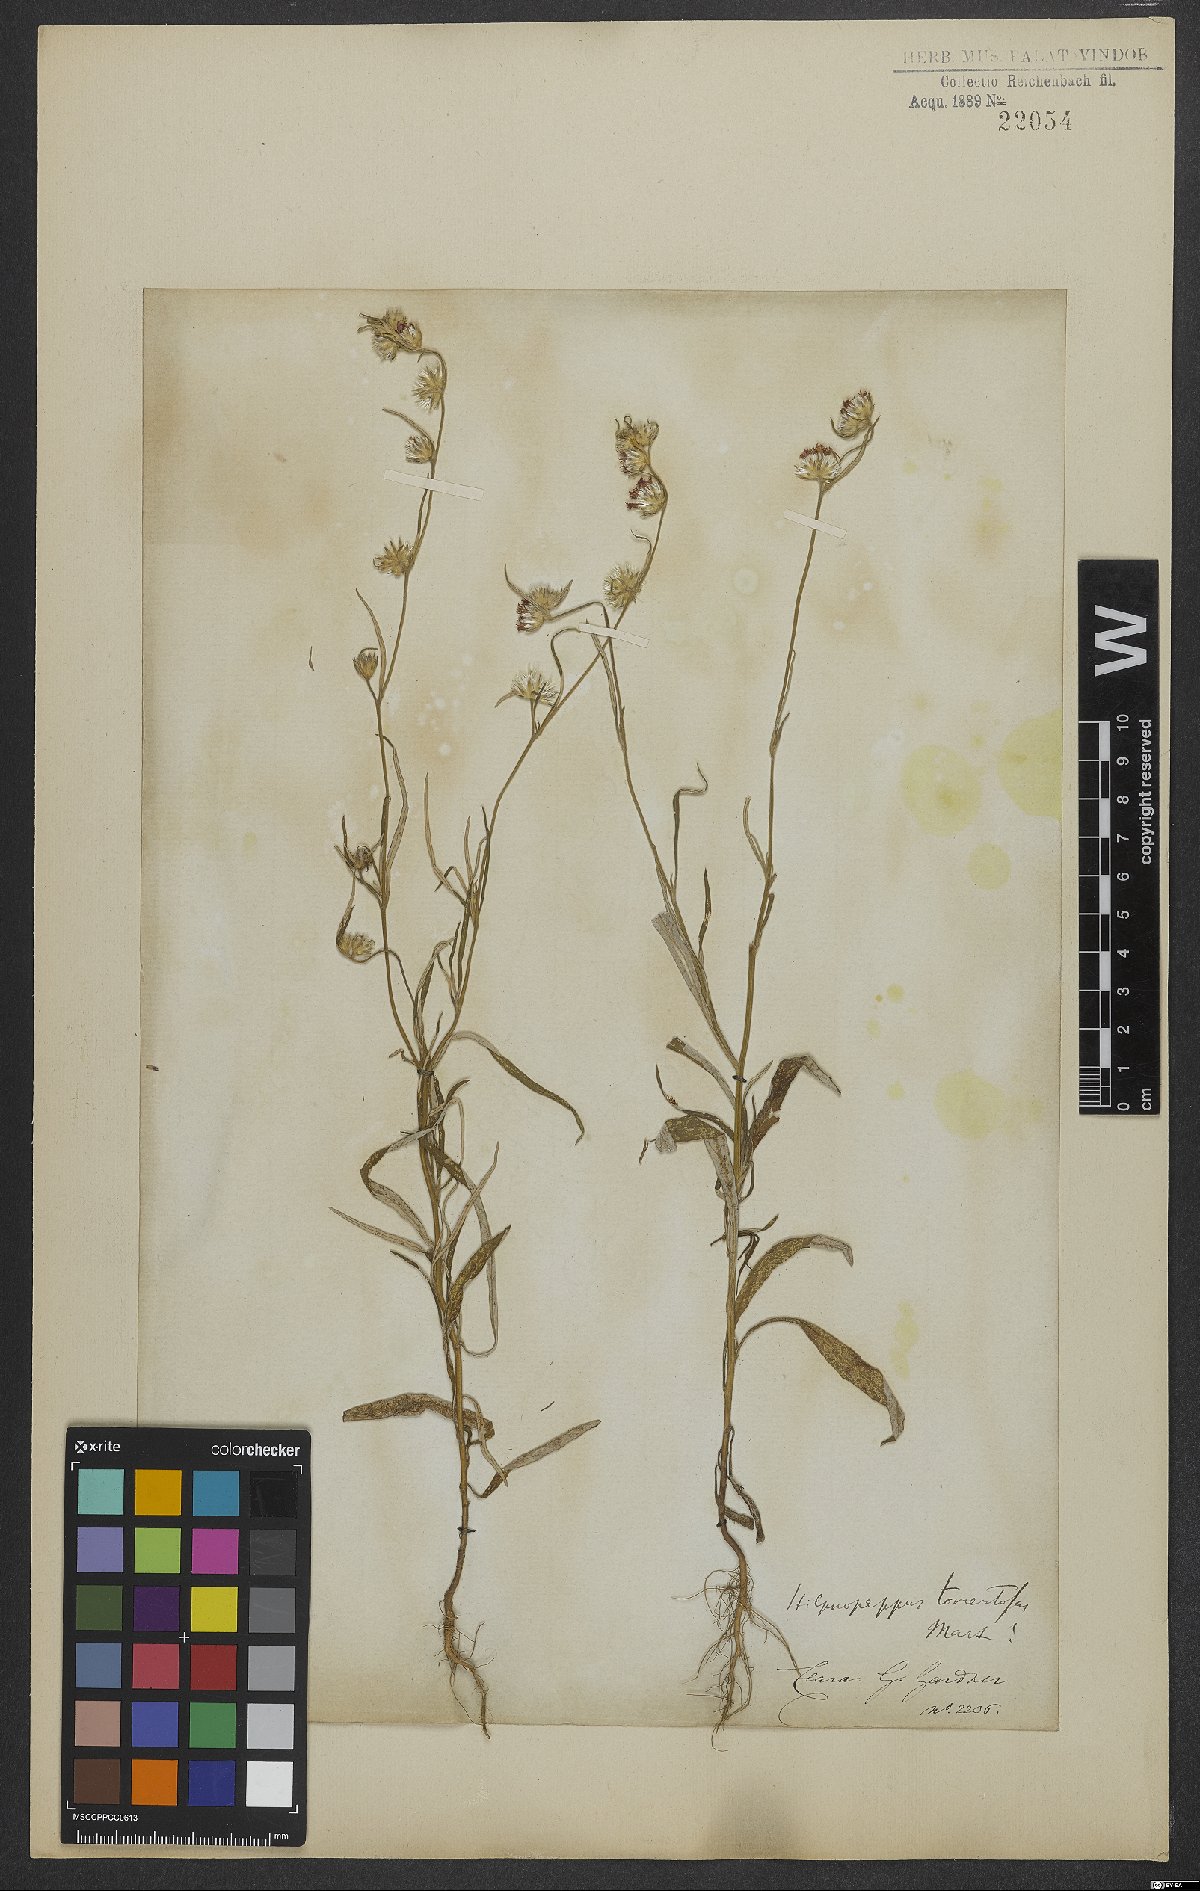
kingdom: Plantae
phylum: Tracheophyta
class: Magnoliopsida
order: Asterales
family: Asteraceae
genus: Stilpnopappus
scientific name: Stilpnopappus tomentosus
